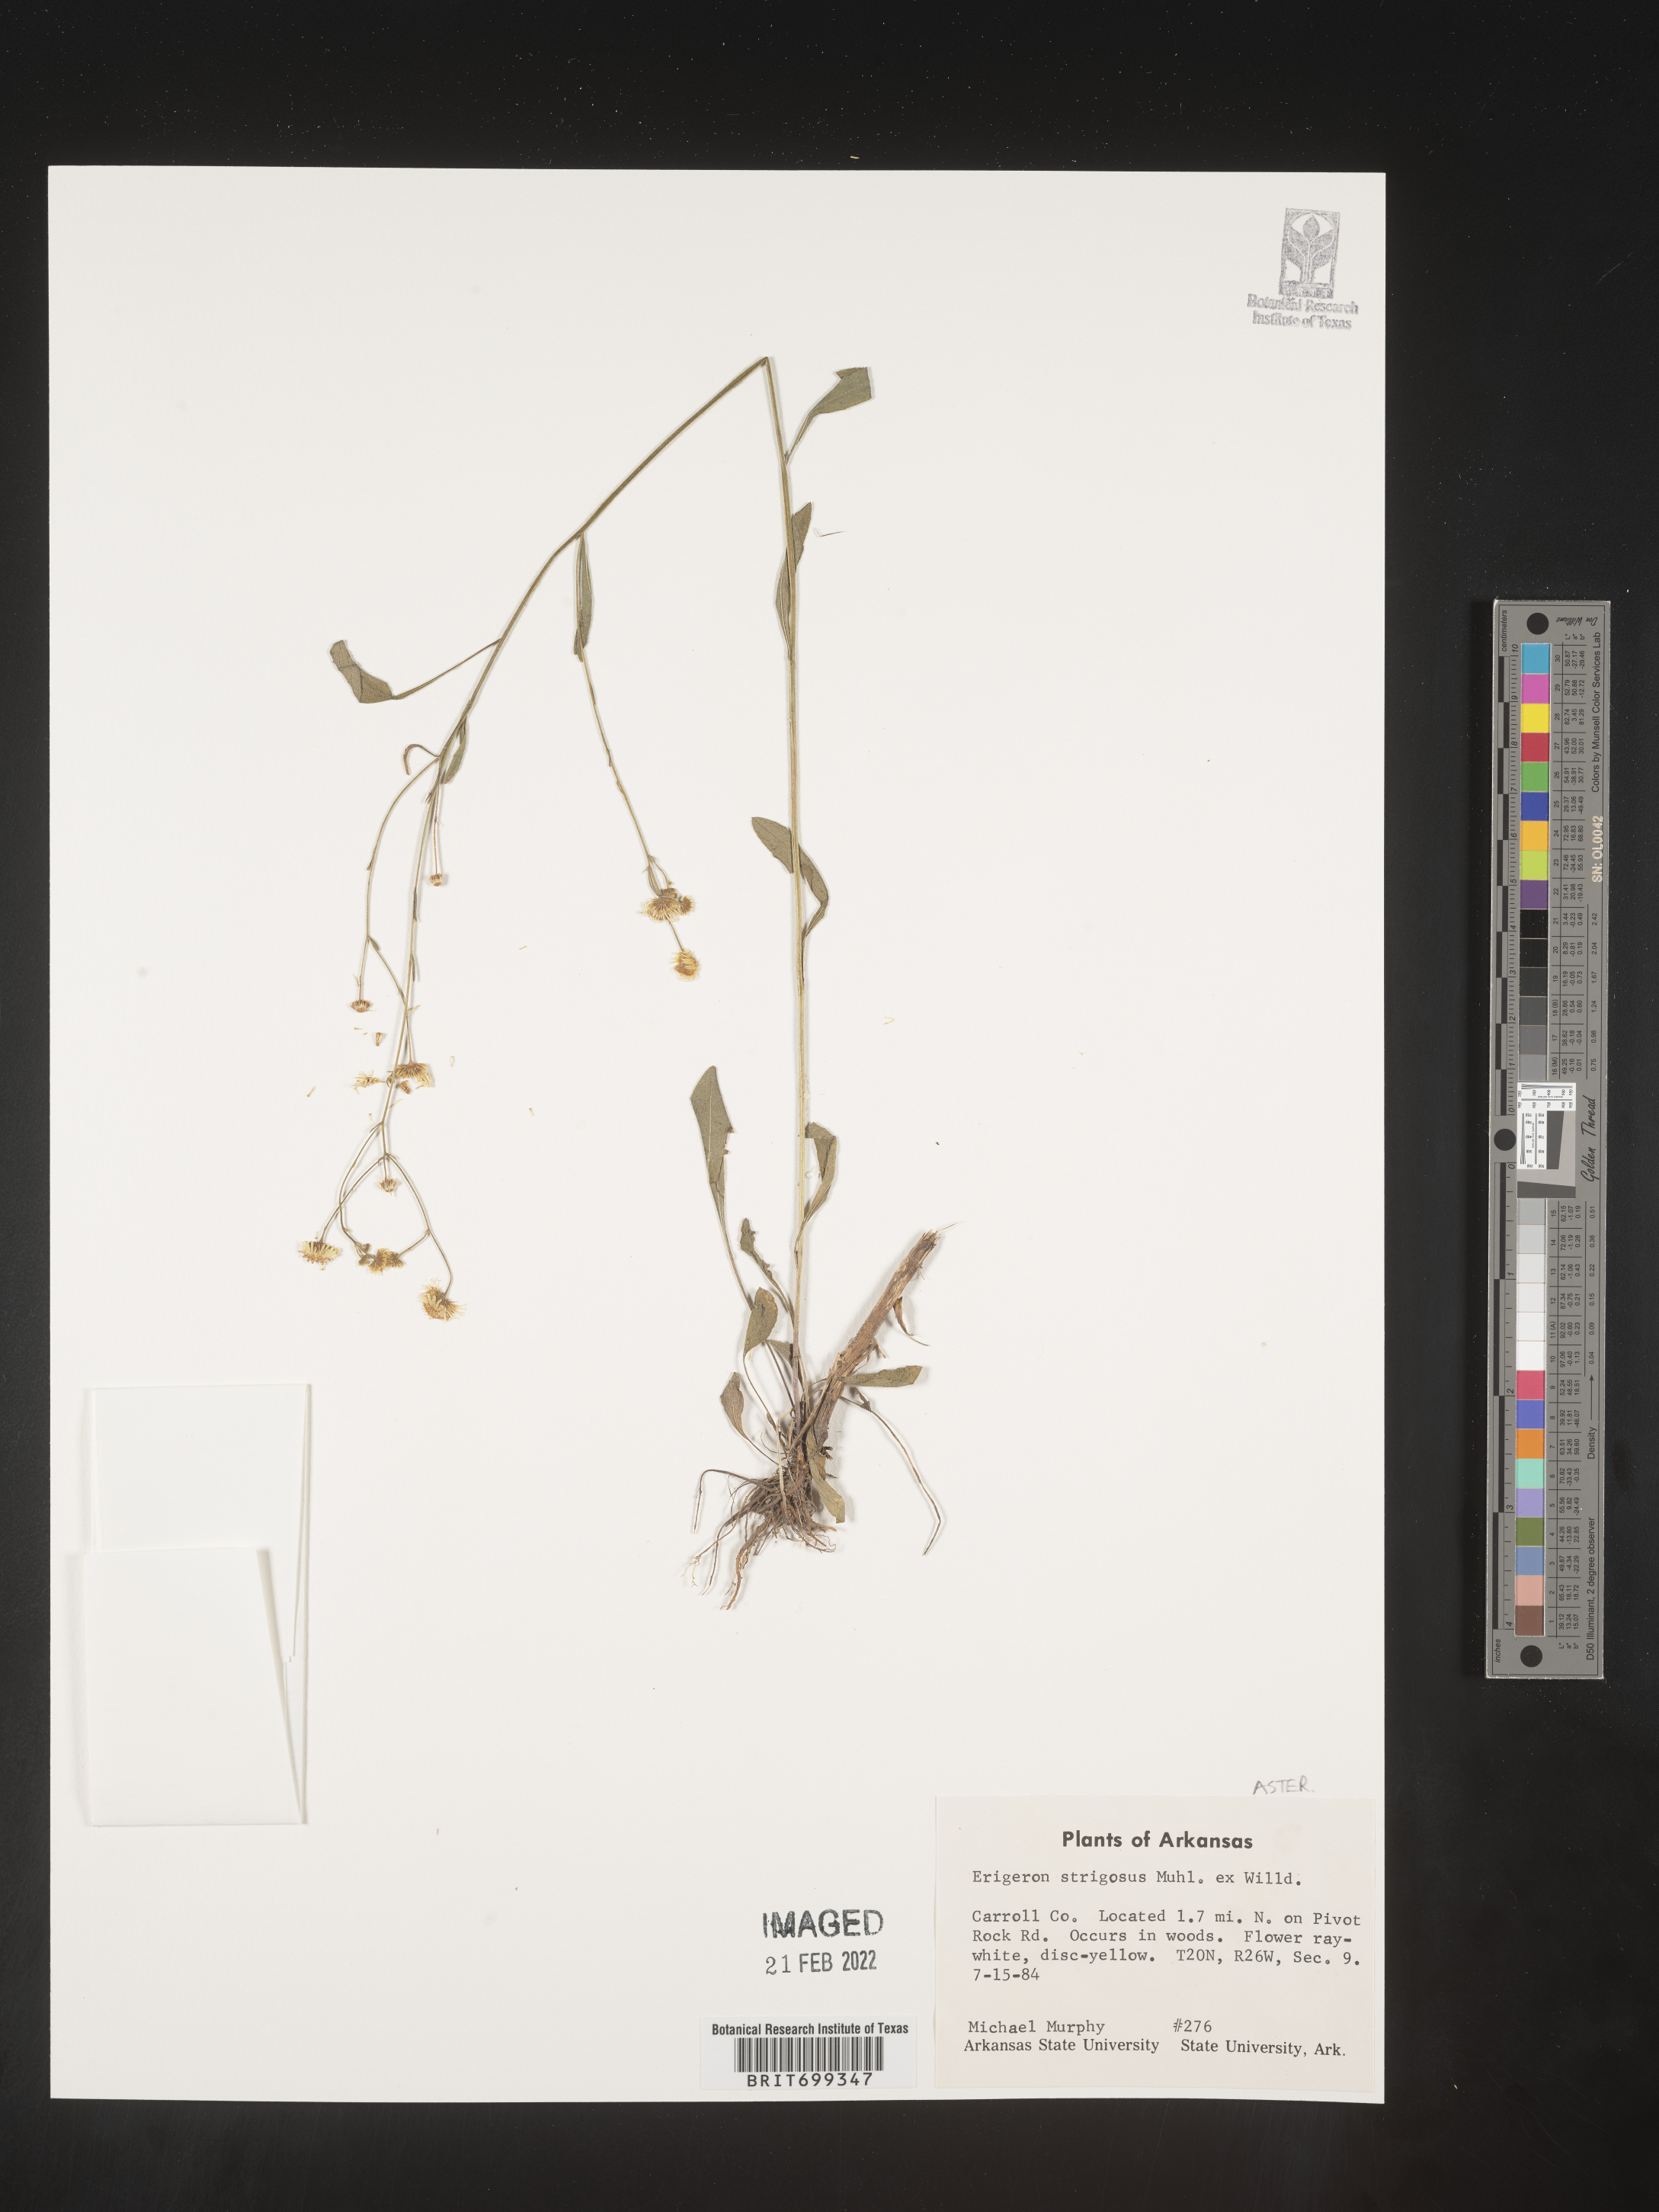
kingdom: Plantae
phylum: Tracheophyta
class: Magnoliopsida
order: Asterales
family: Asteraceae
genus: Erigeron
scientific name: Erigeron strigosus
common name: Common eastern fleabane
